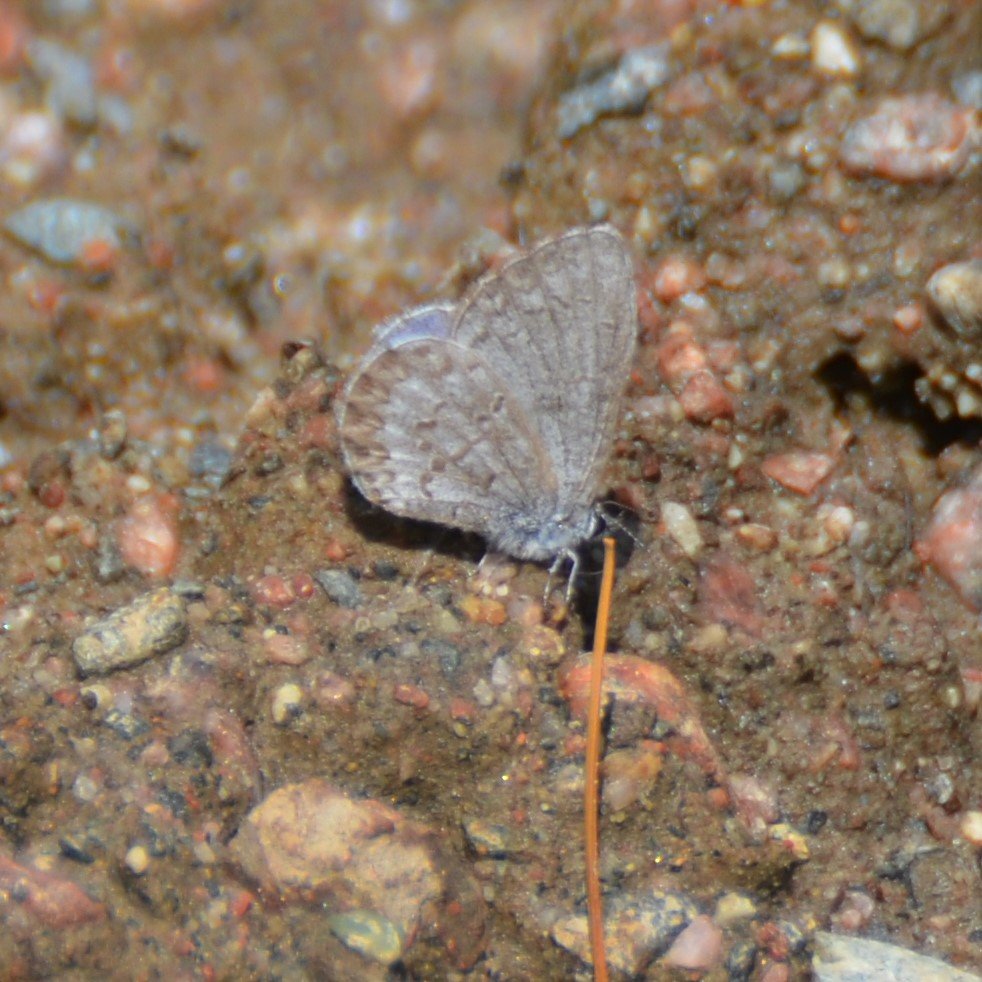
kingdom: Animalia
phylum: Arthropoda
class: Insecta
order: Lepidoptera
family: Lycaenidae
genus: Celastrina
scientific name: Celastrina lucia
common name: Northern Spring Azure
